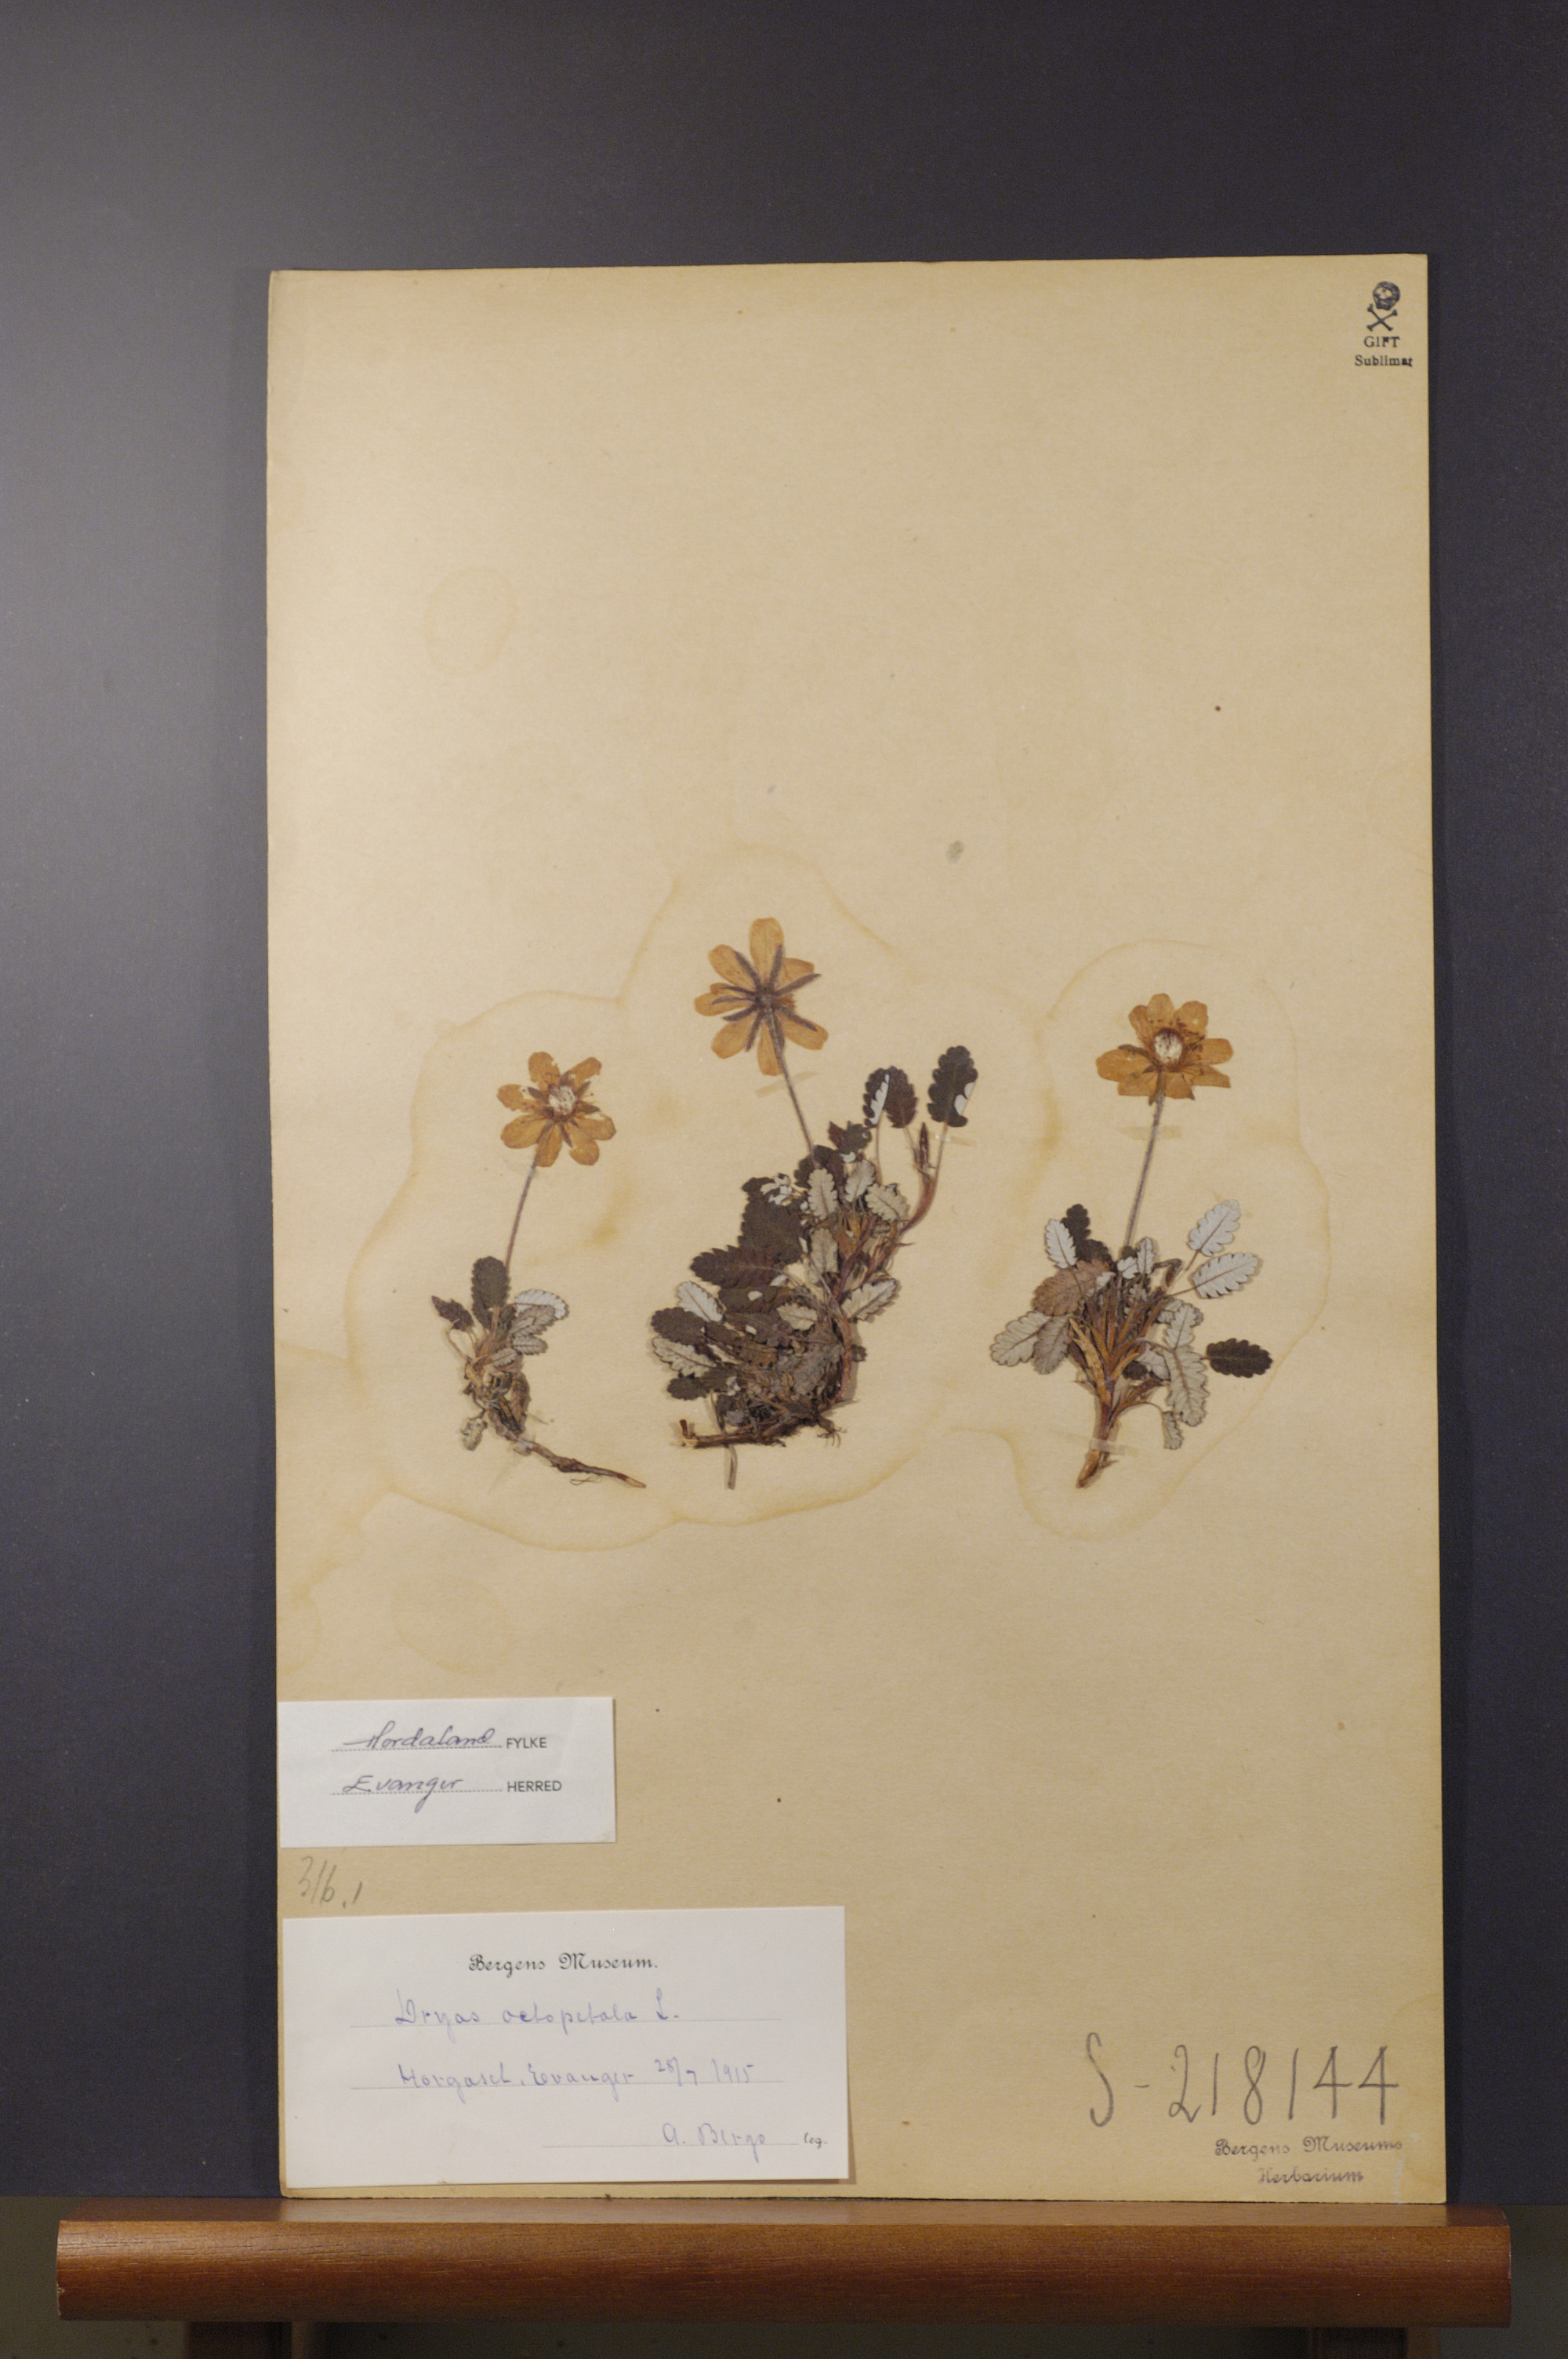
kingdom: Plantae
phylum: Tracheophyta
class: Magnoliopsida
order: Rosales
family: Rosaceae
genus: Dryas
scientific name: Dryas octopetala
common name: Eight-petal mountain-avens
